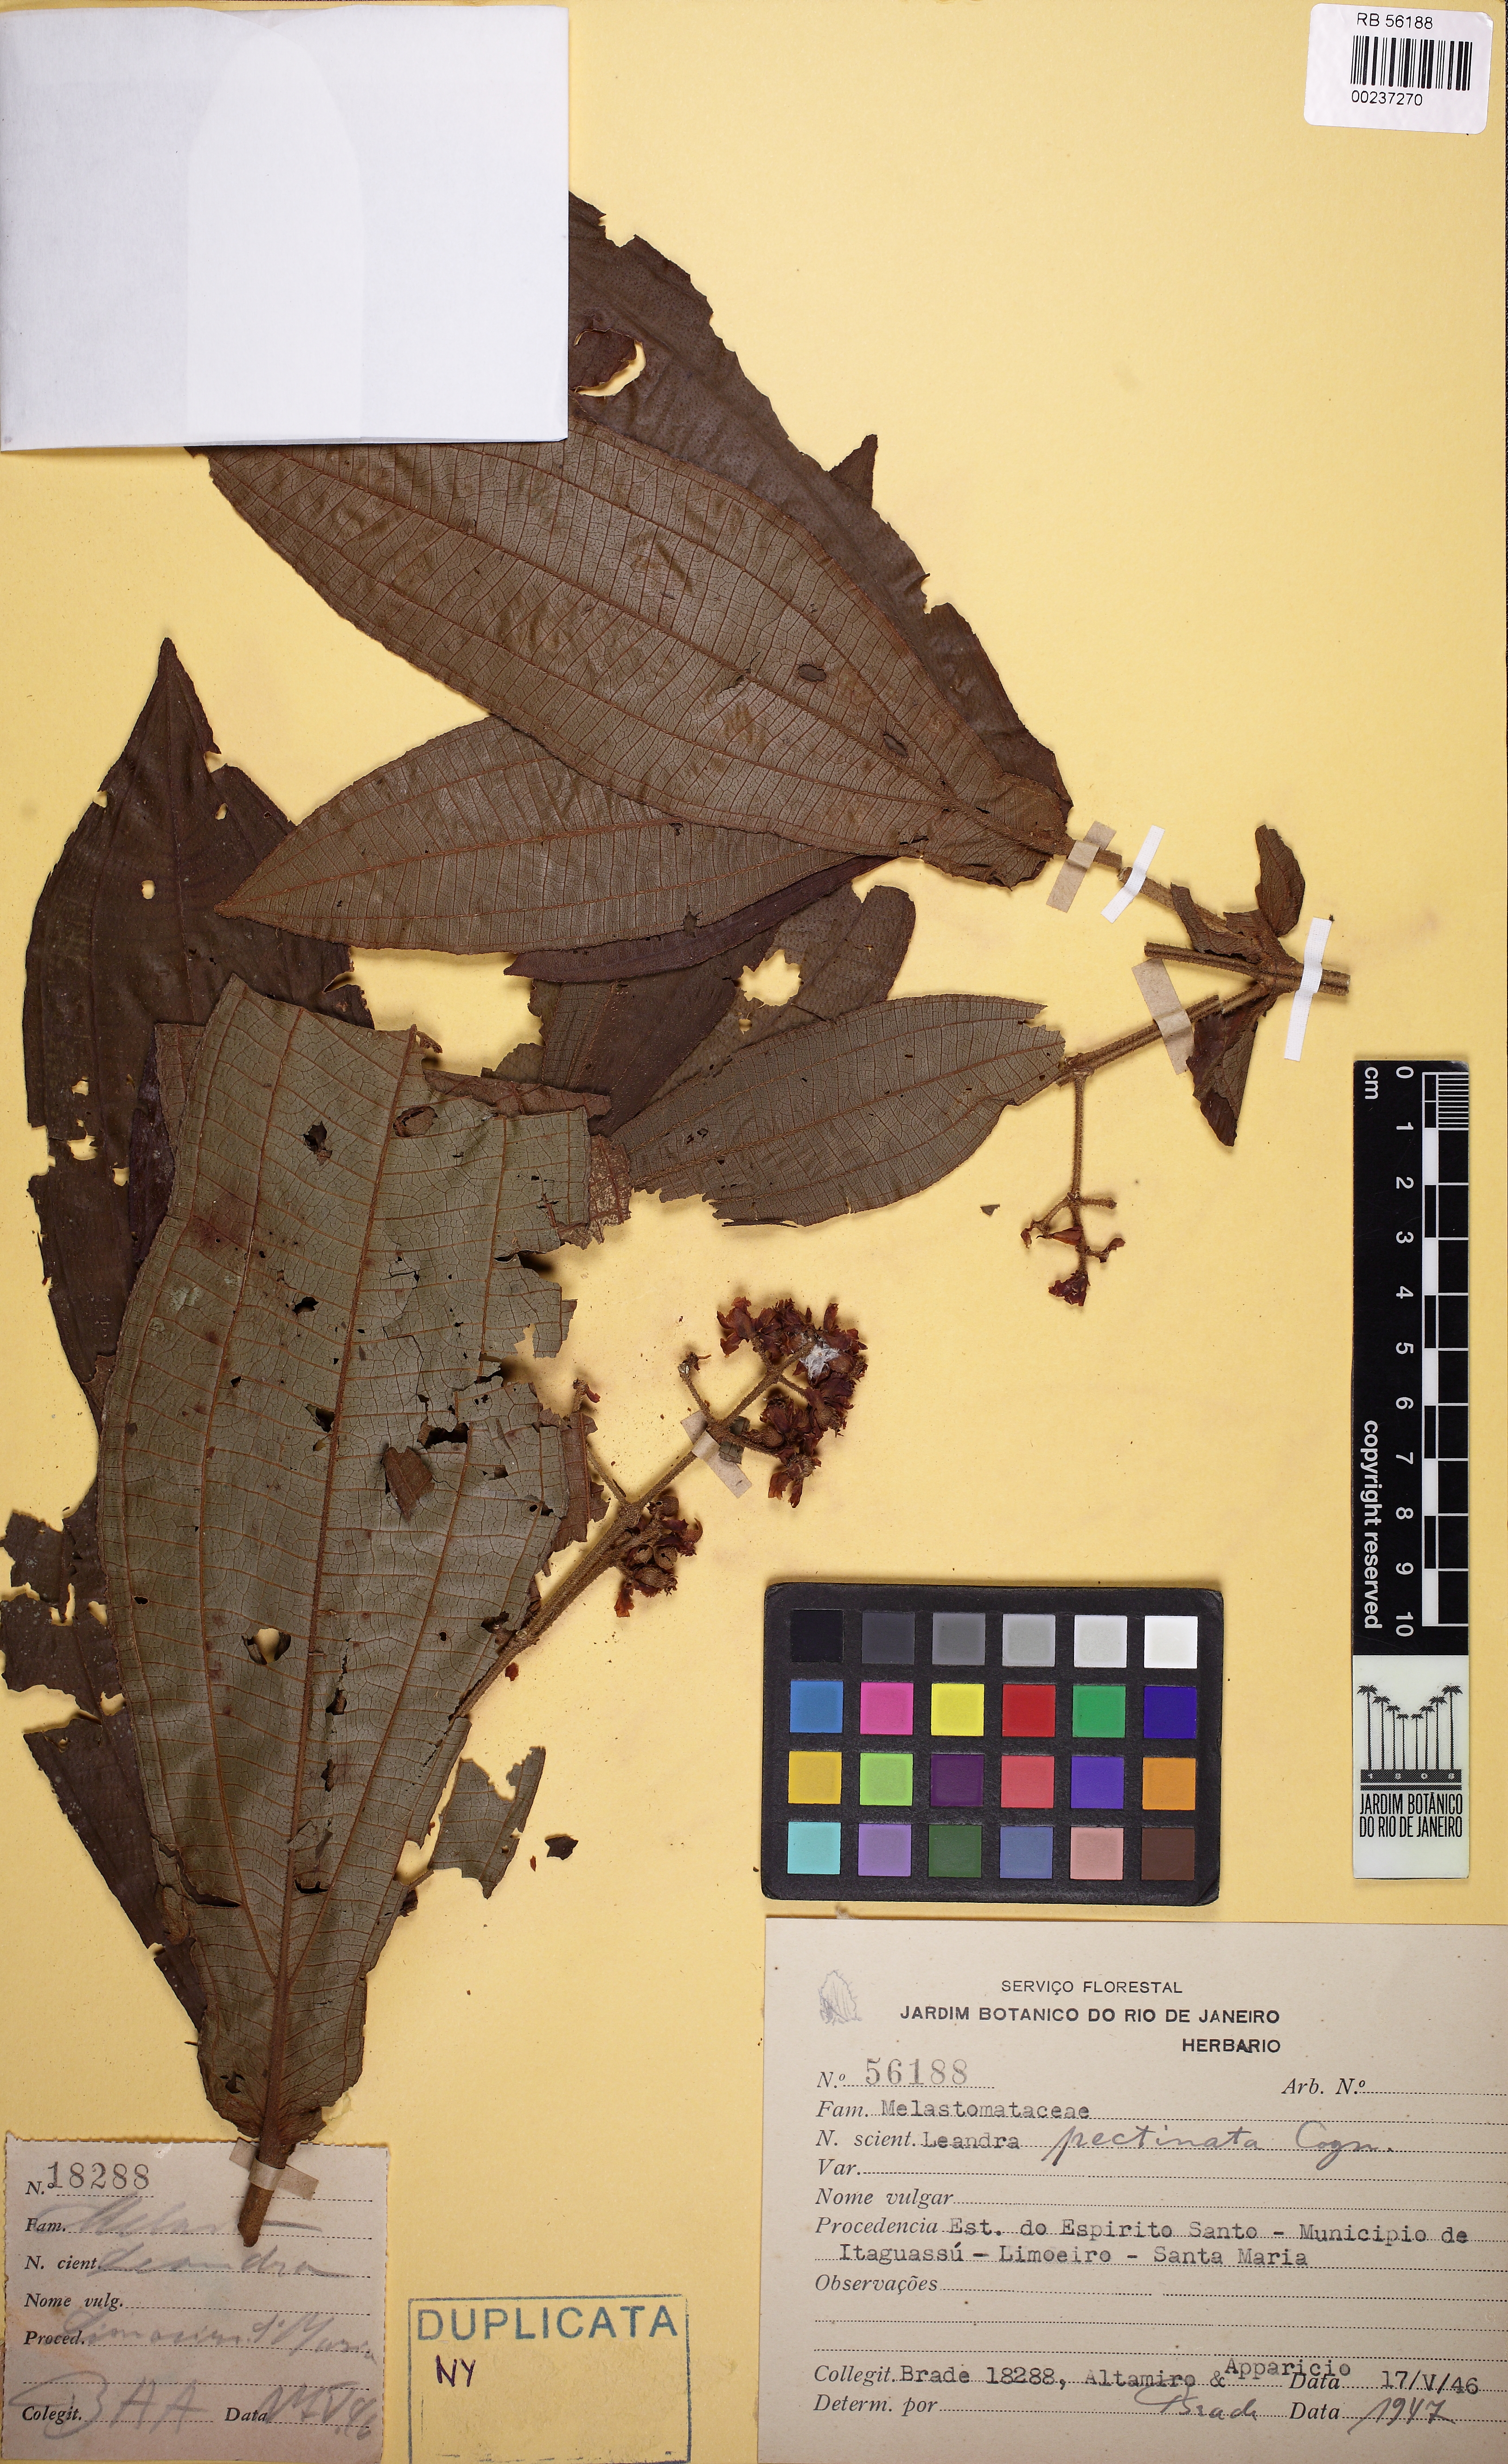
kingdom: Plantae
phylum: Tracheophyta
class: Magnoliopsida
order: Myrtales
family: Melastomataceae
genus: Miconia
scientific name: Miconia pectinata
